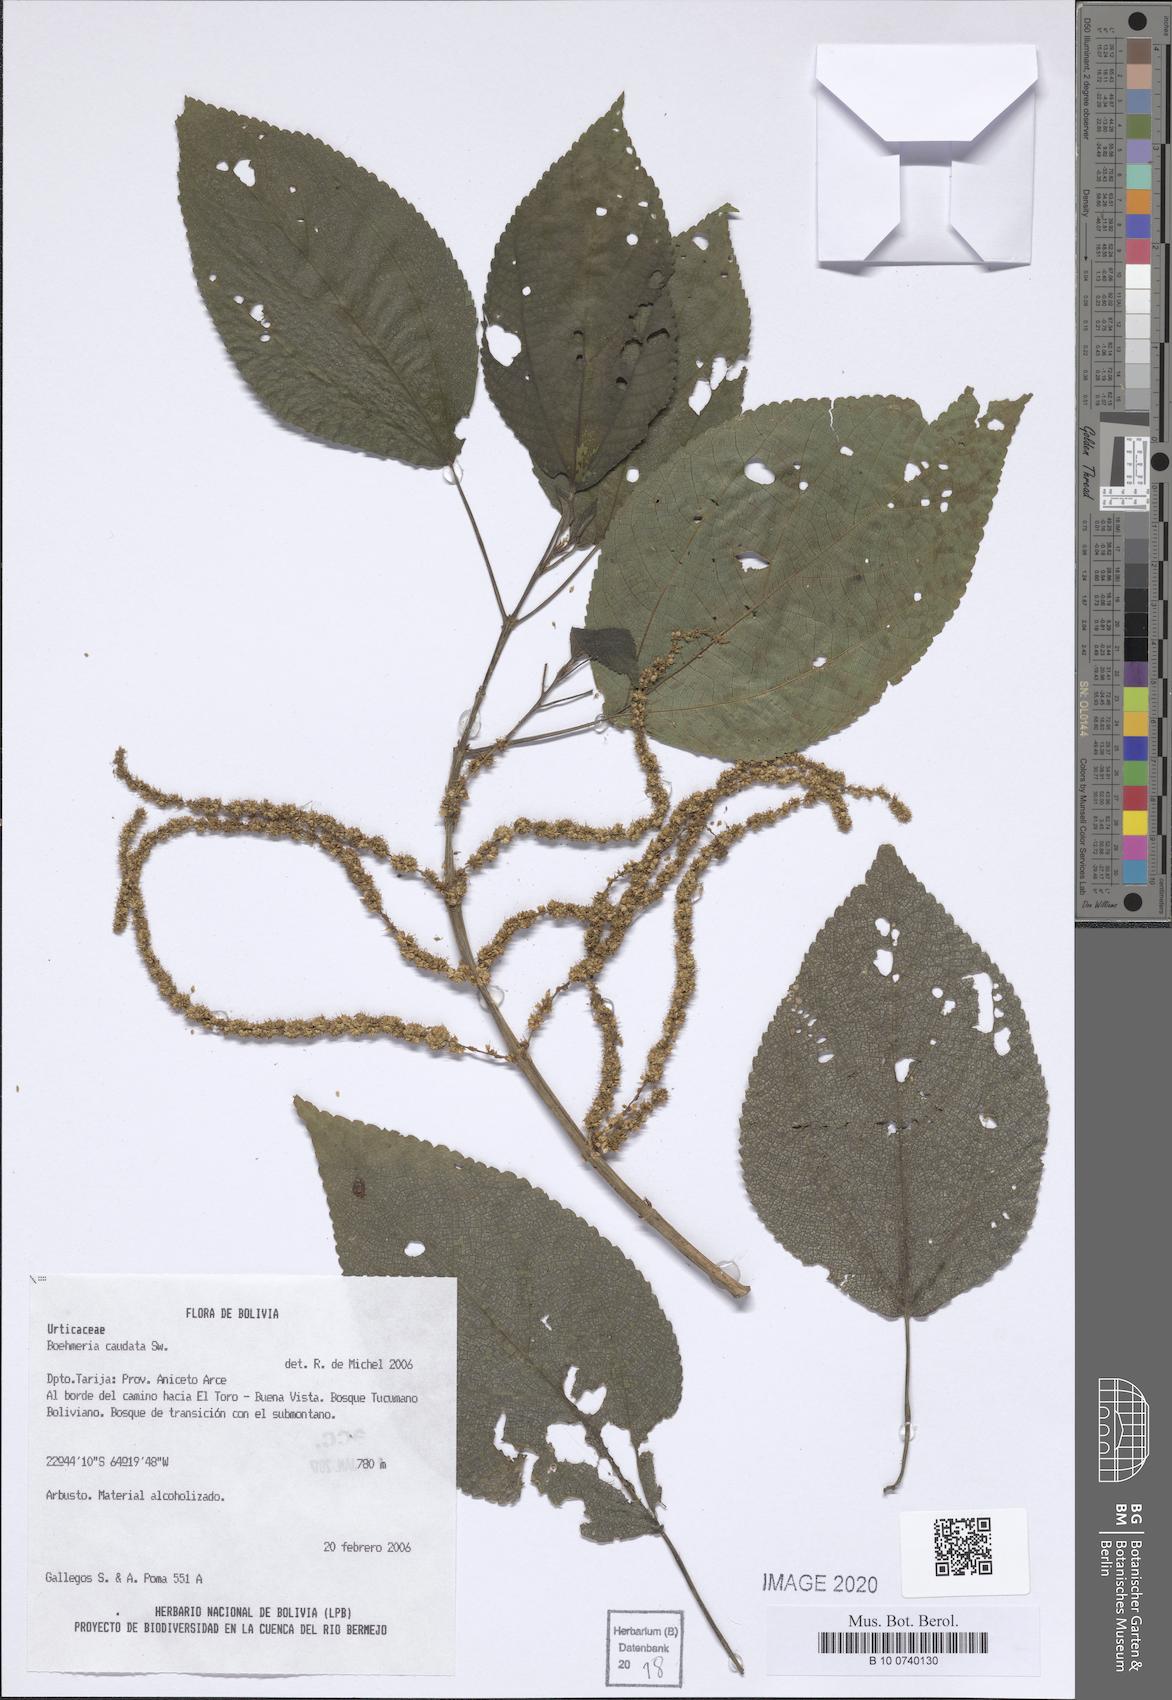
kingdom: Plantae
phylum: Tracheophyta
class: Magnoliopsida
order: Rosales
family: Urticaceae
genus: Boehmeria
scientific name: Boehmeria caudata
